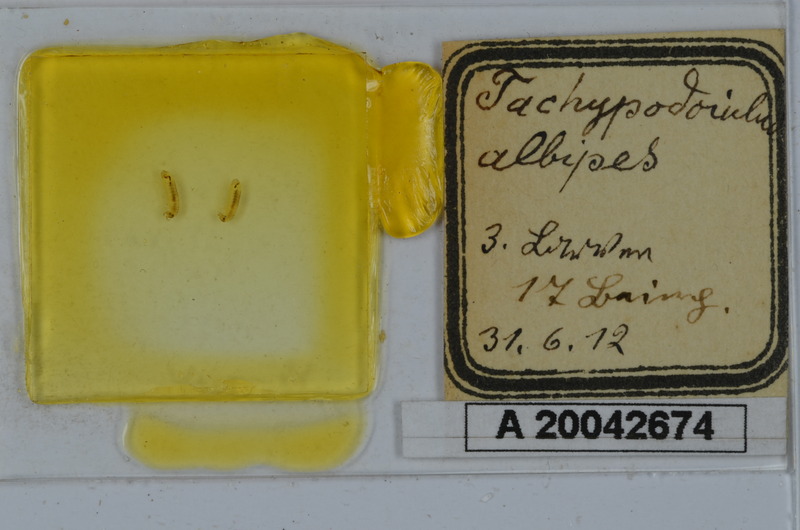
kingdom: Animalia
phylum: Arthropoda
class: Diplopoda
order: Julida
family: Julidae
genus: Tachypodoiulus
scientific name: Tachypodoiulus niger
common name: White-legged snake millipede
